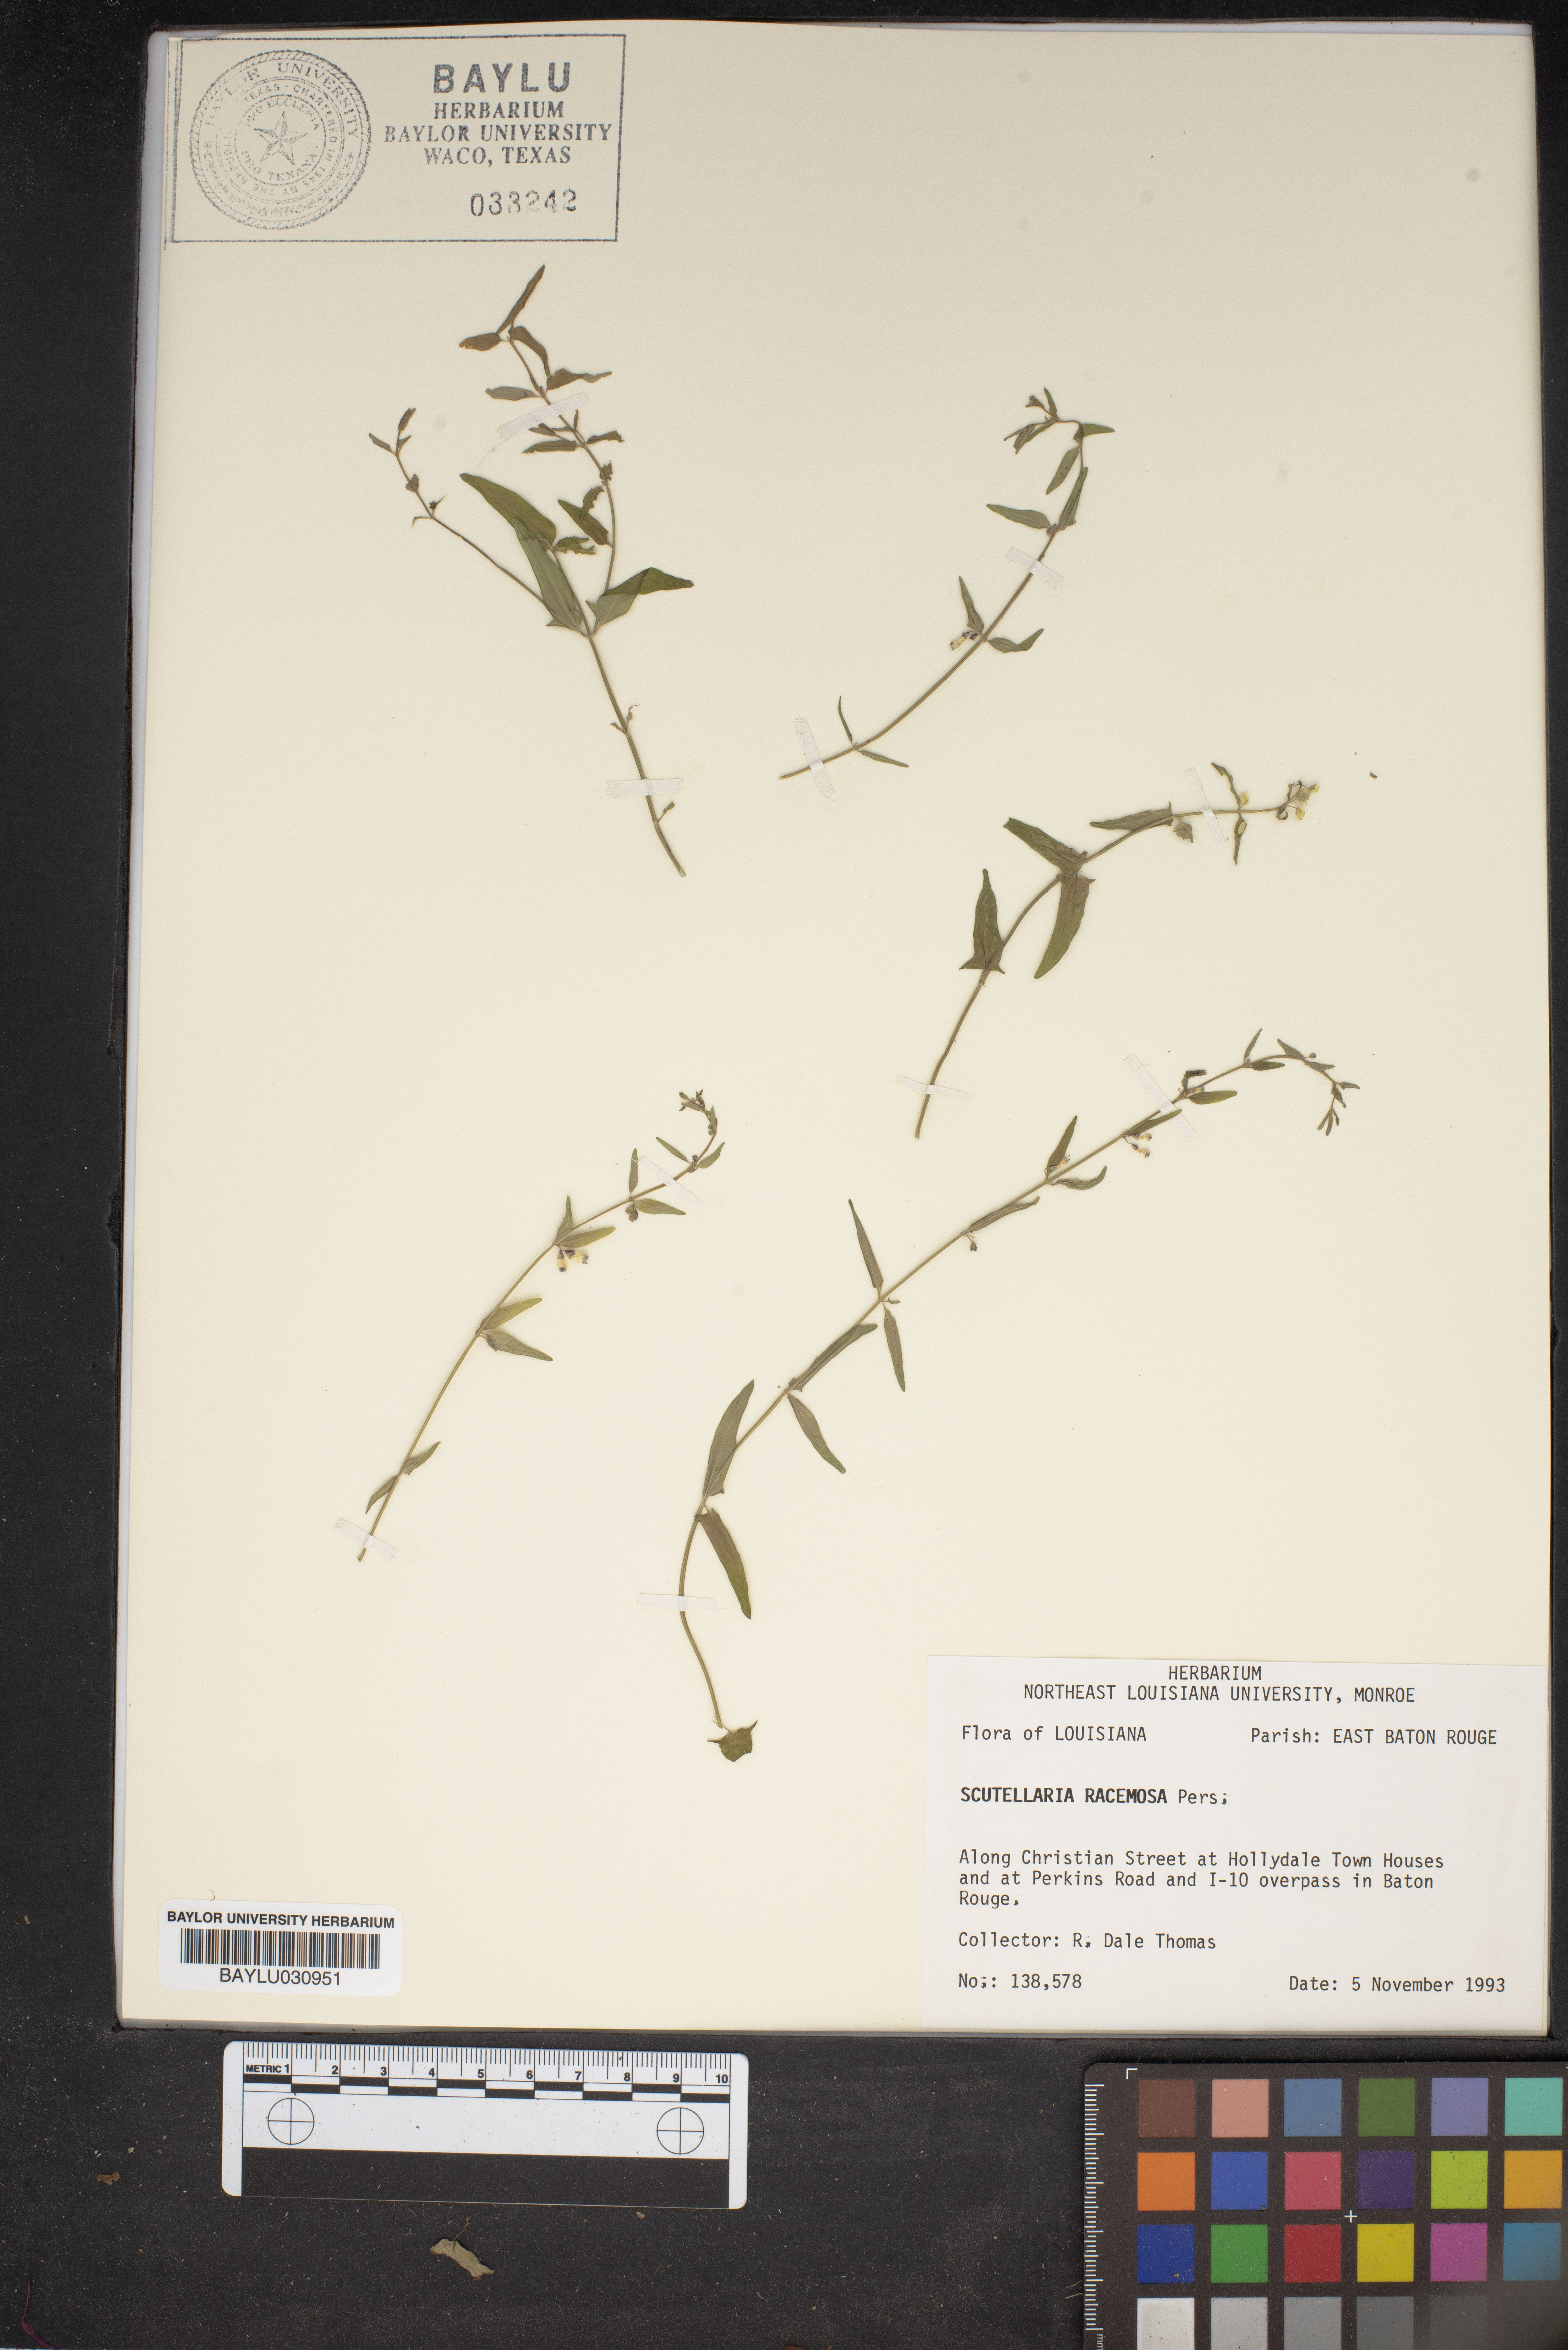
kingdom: Plantae
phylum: Tracheophyta
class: Magnoliopsida
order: Lamiales
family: Lamiaceae
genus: Scutellaria
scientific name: Scutellaria racemosa
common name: South american skullcap
